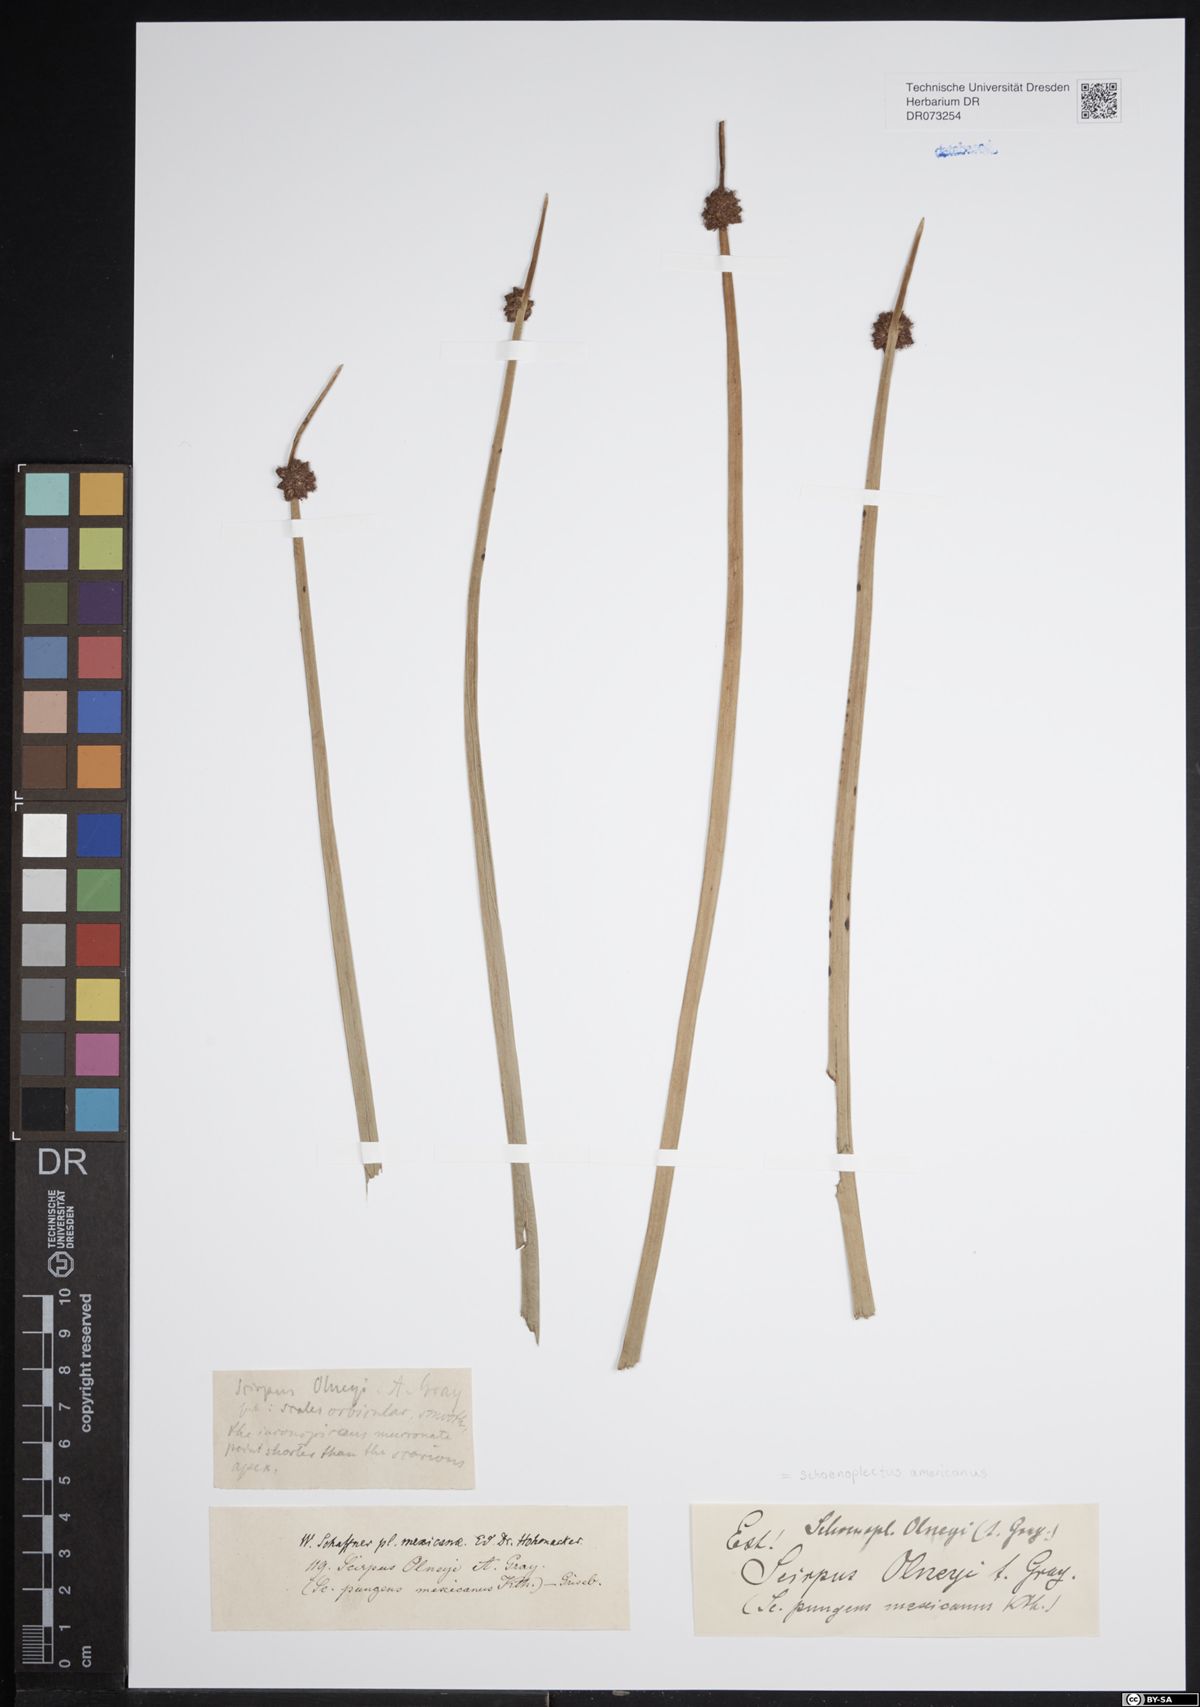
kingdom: Plantae
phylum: Tracheophyta
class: Liliopsida
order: Poales
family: Cyperaceae
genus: Schoenoplectus
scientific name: Schoenoplectus americanus
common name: American three-square bulrush
